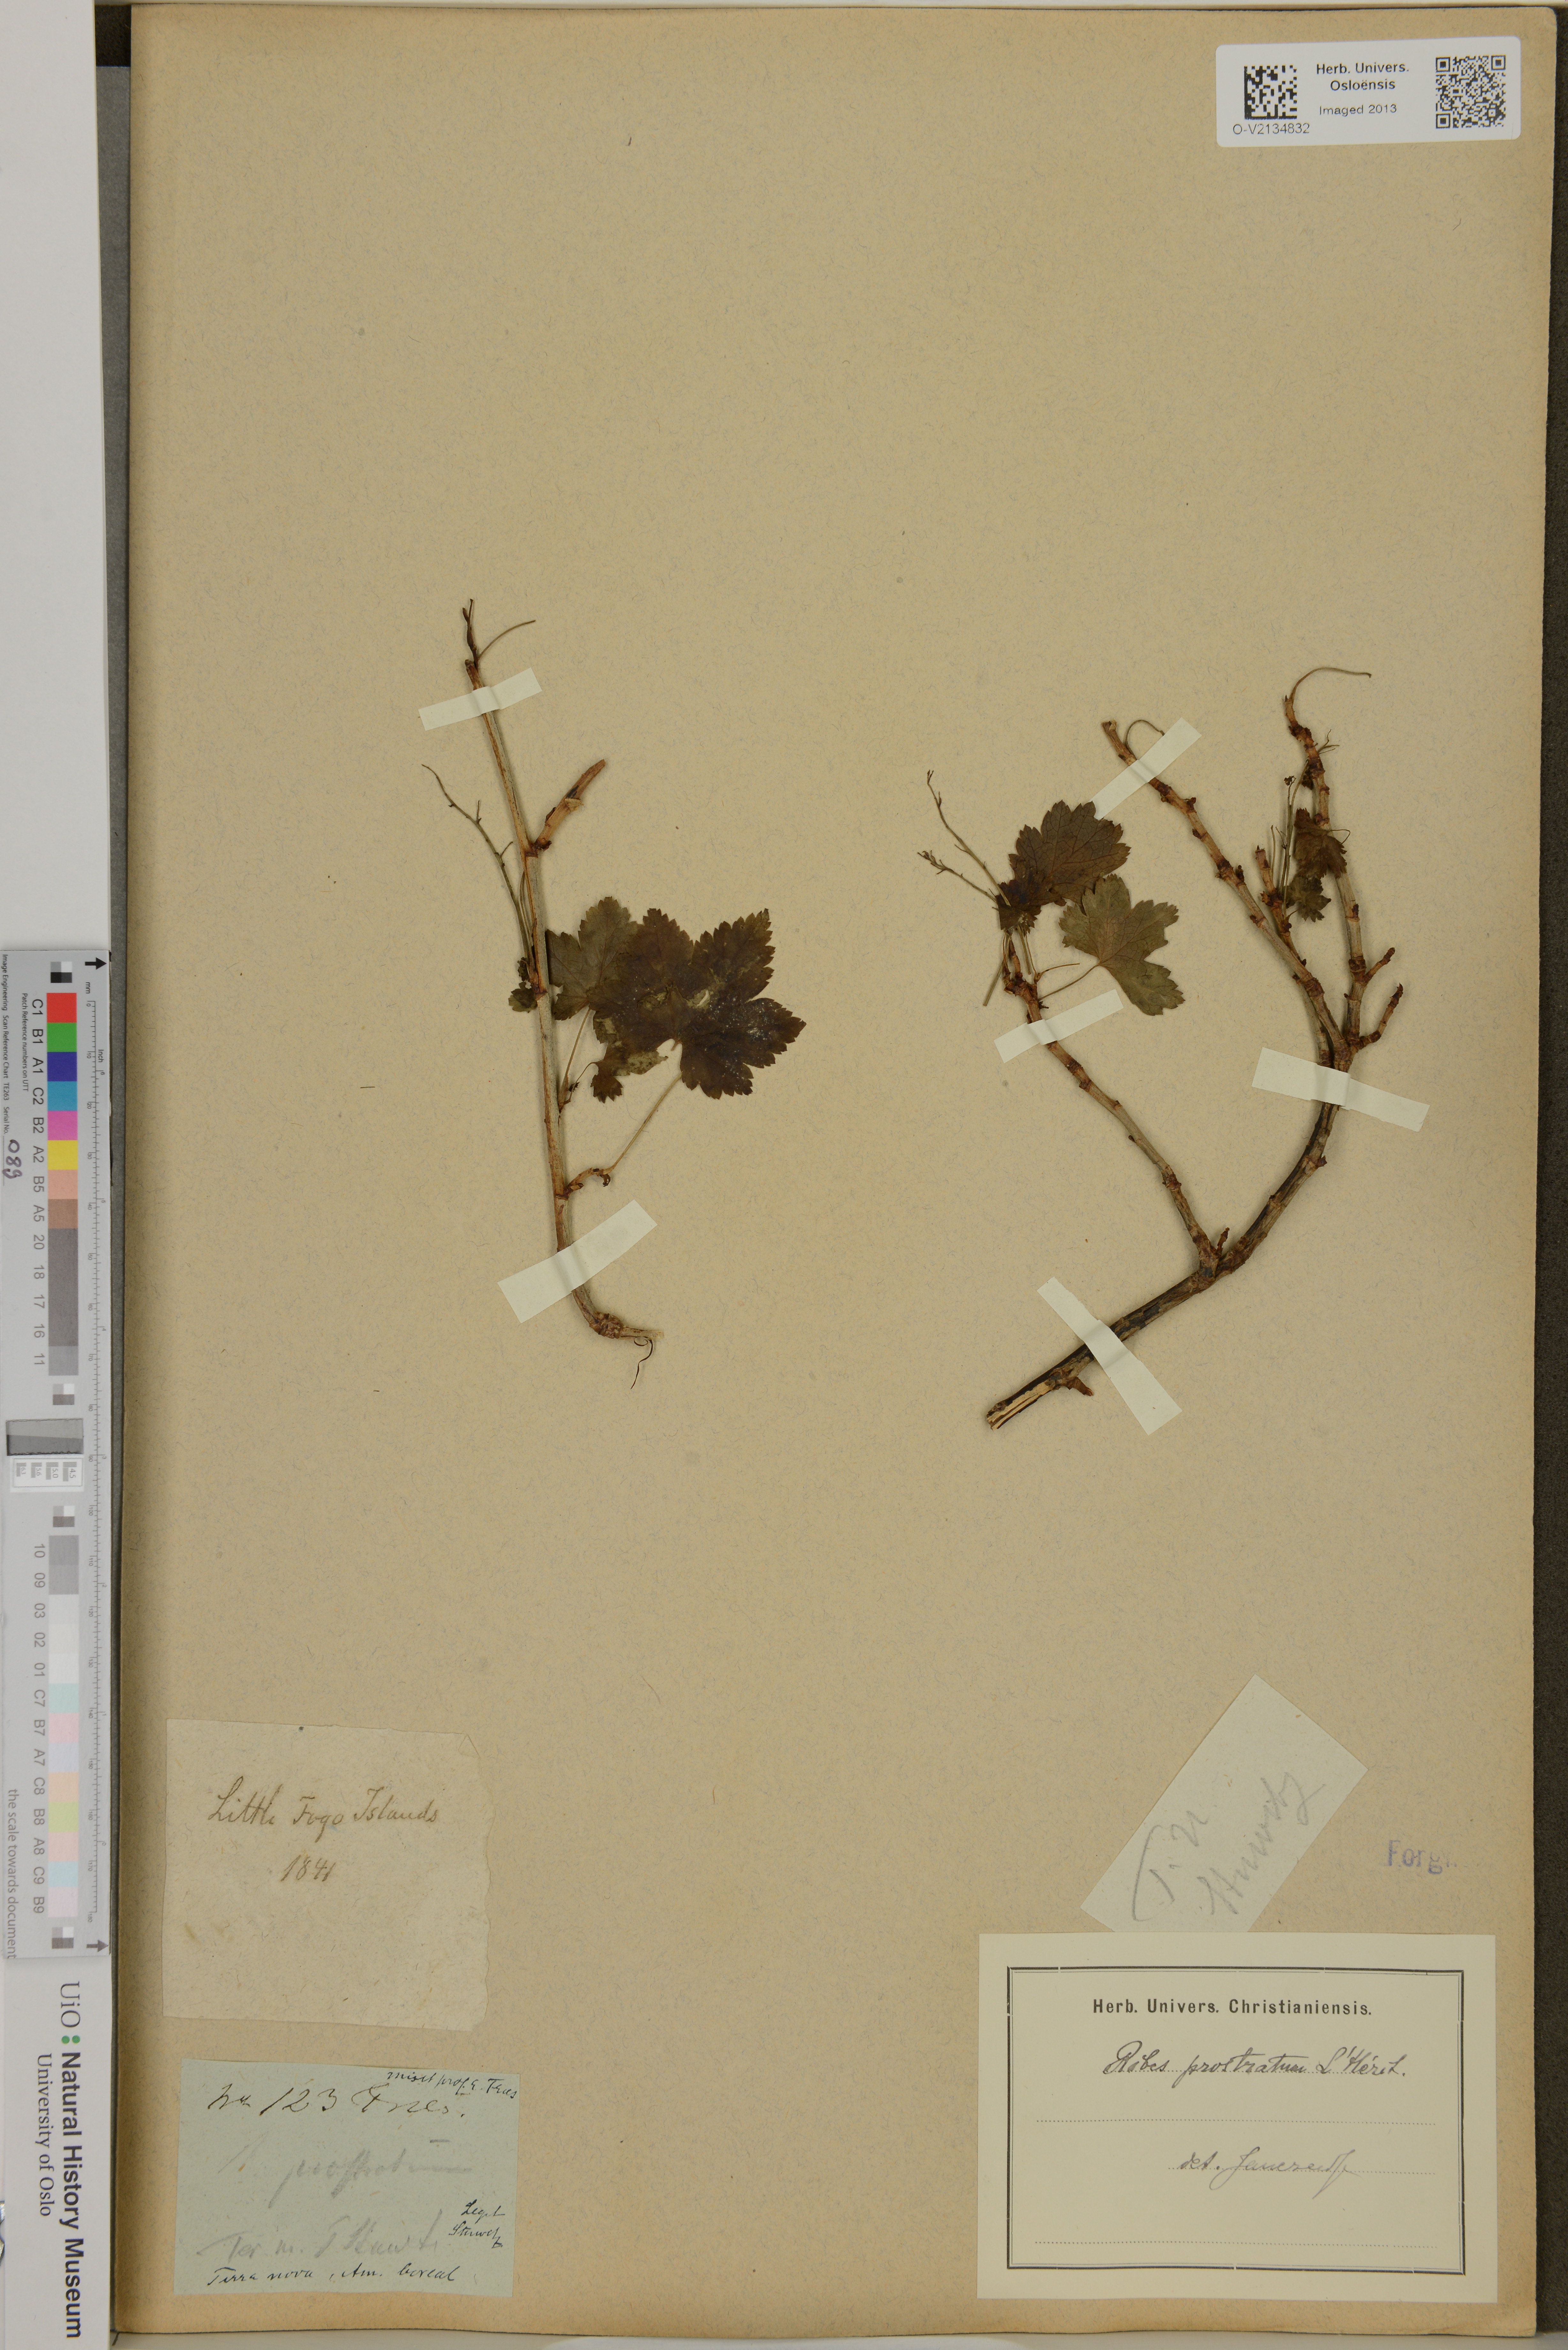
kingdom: Plantae
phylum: Tracheophyta
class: Magnoliopsida
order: Saxifragales
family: Grossulariaceae
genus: Ribes
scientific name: Ribes glandulosum
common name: Skunk currant
